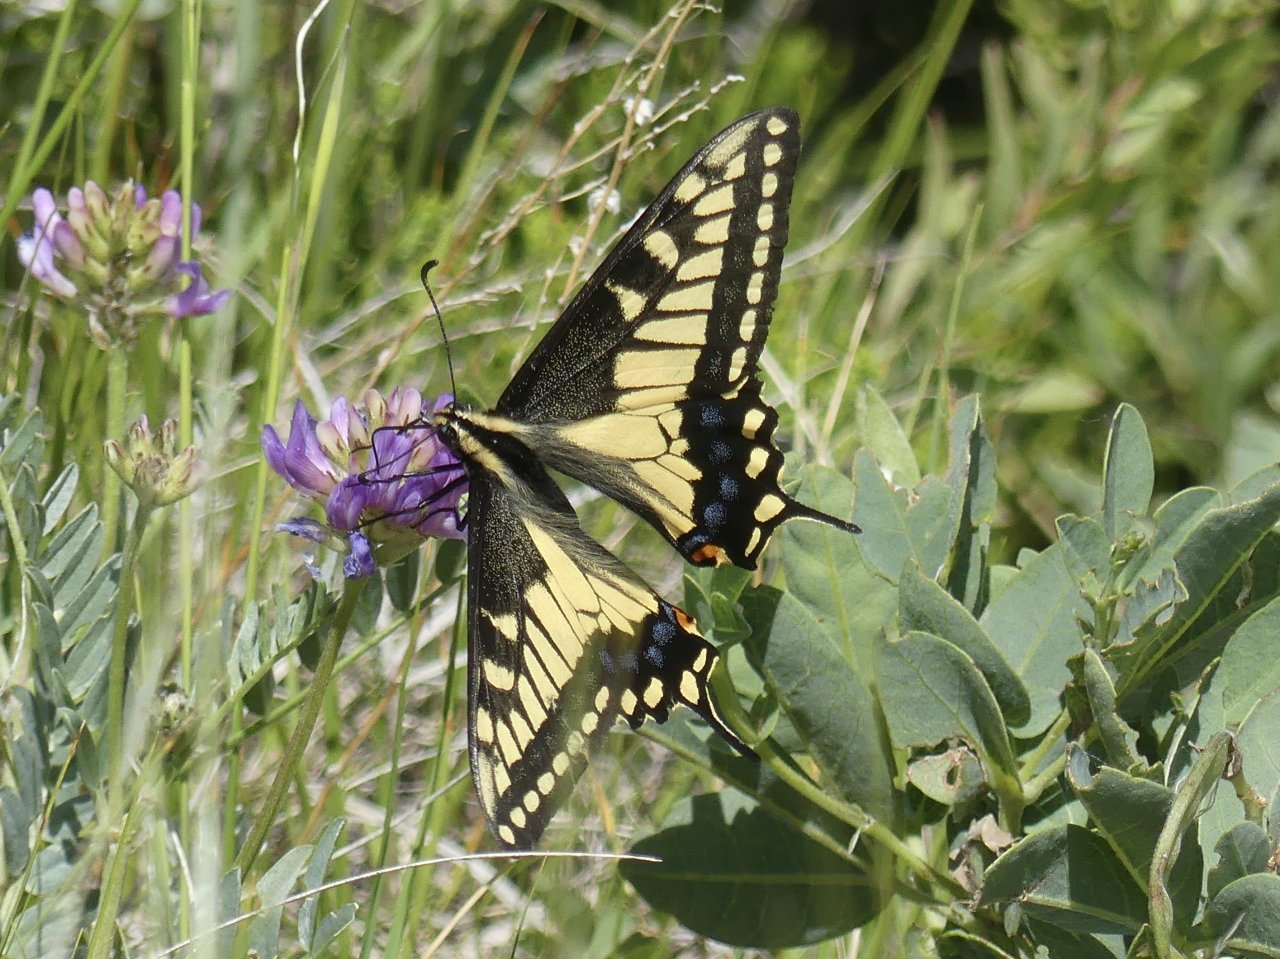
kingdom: Animalia
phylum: Arthropoda
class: Insecta
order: Lepidoptera
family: Papilionidae
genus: Papilio
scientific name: Papilio machaon
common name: Old World Swallowtail
